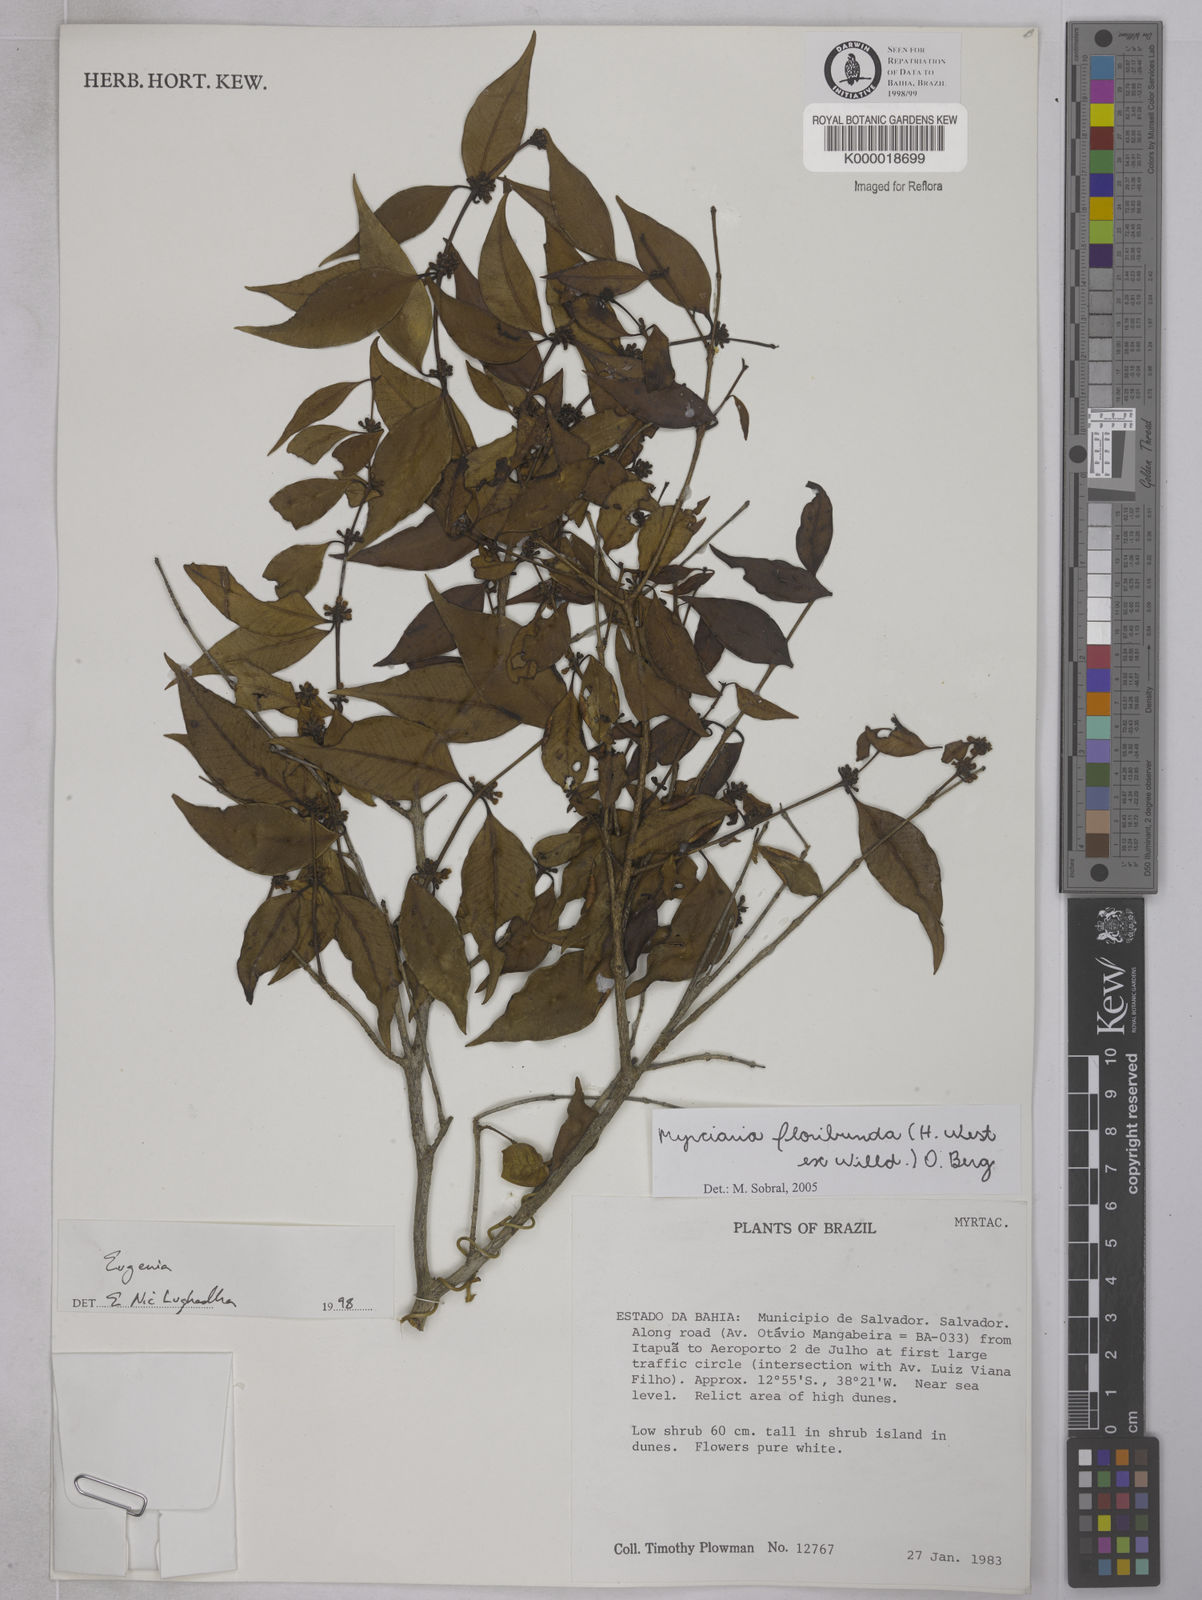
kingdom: Plantae
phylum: Tracheophyta
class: Magnoliopsida
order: Myrtales
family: Myrtaceae
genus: Myrciaria
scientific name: Myrciaria floribunda
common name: Guavaberry
